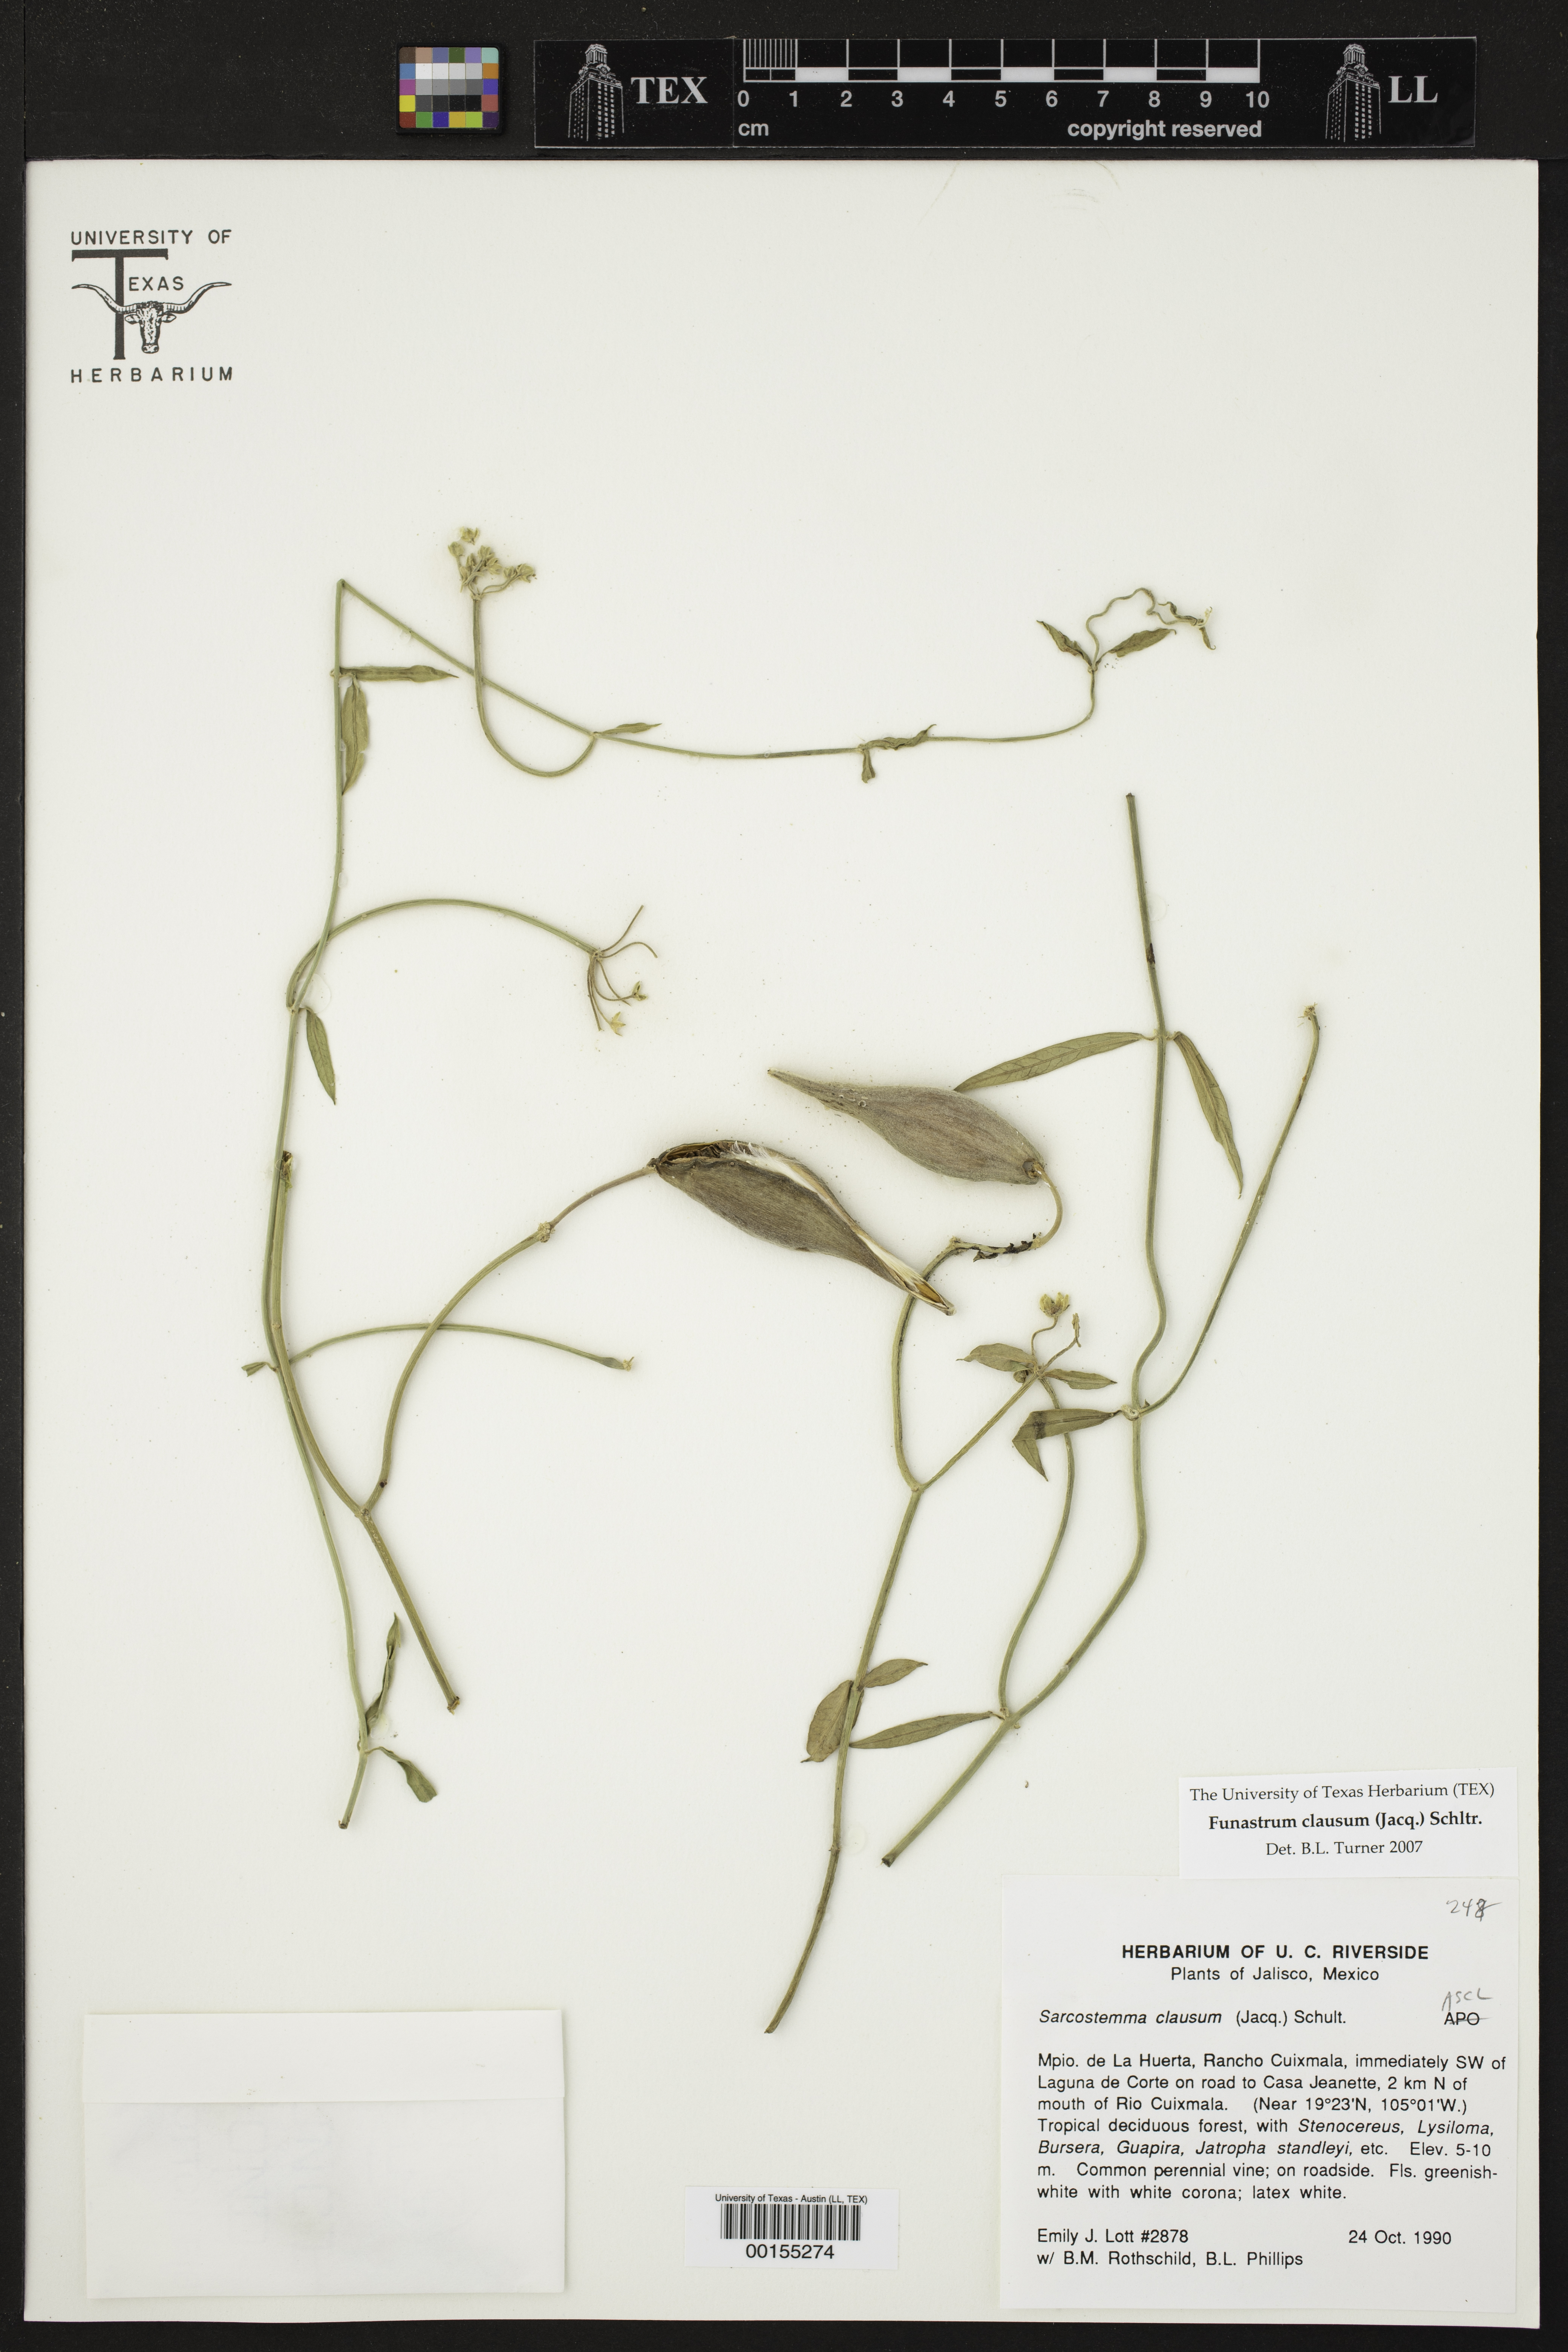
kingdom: Plantae
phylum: Tracheophyta
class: Magnoliopsida
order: Gentianales
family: Apocynaceae
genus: Funastrum
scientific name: Funastrum clausum
